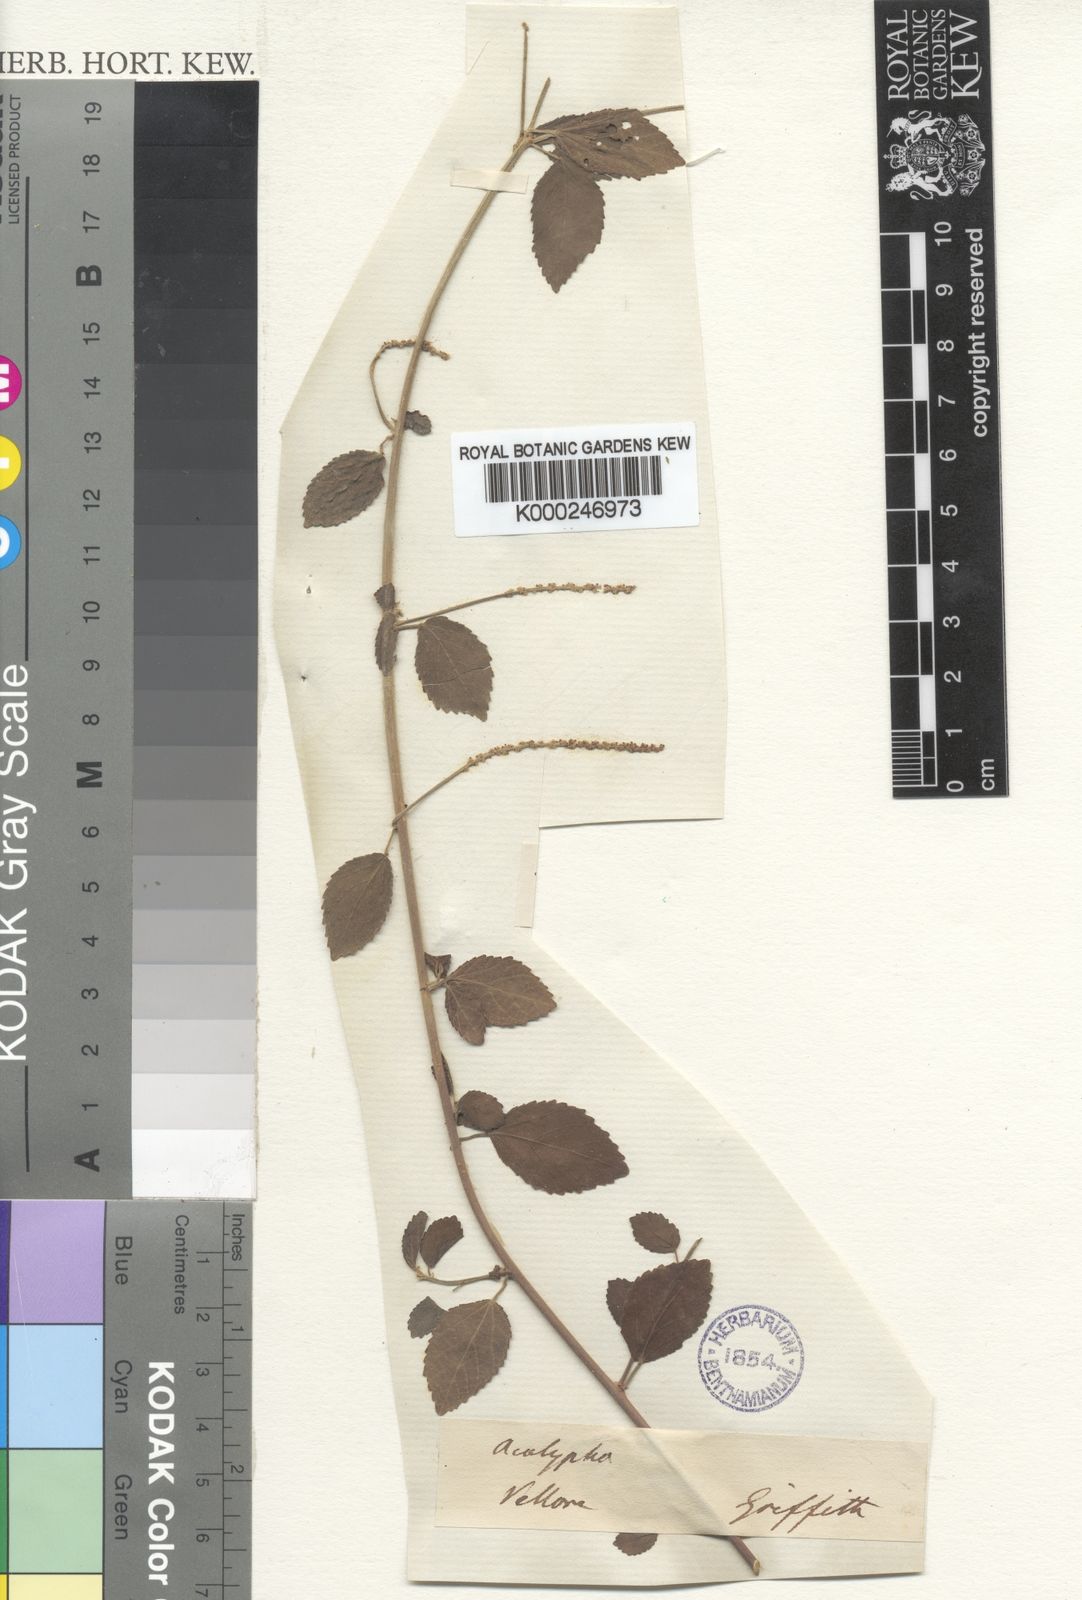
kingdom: Plantae
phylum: Tracheophyta
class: Magnoliopsida
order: Malpighiales
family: Euphorbiaceae
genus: Acalypha
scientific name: Acalypha capitata
